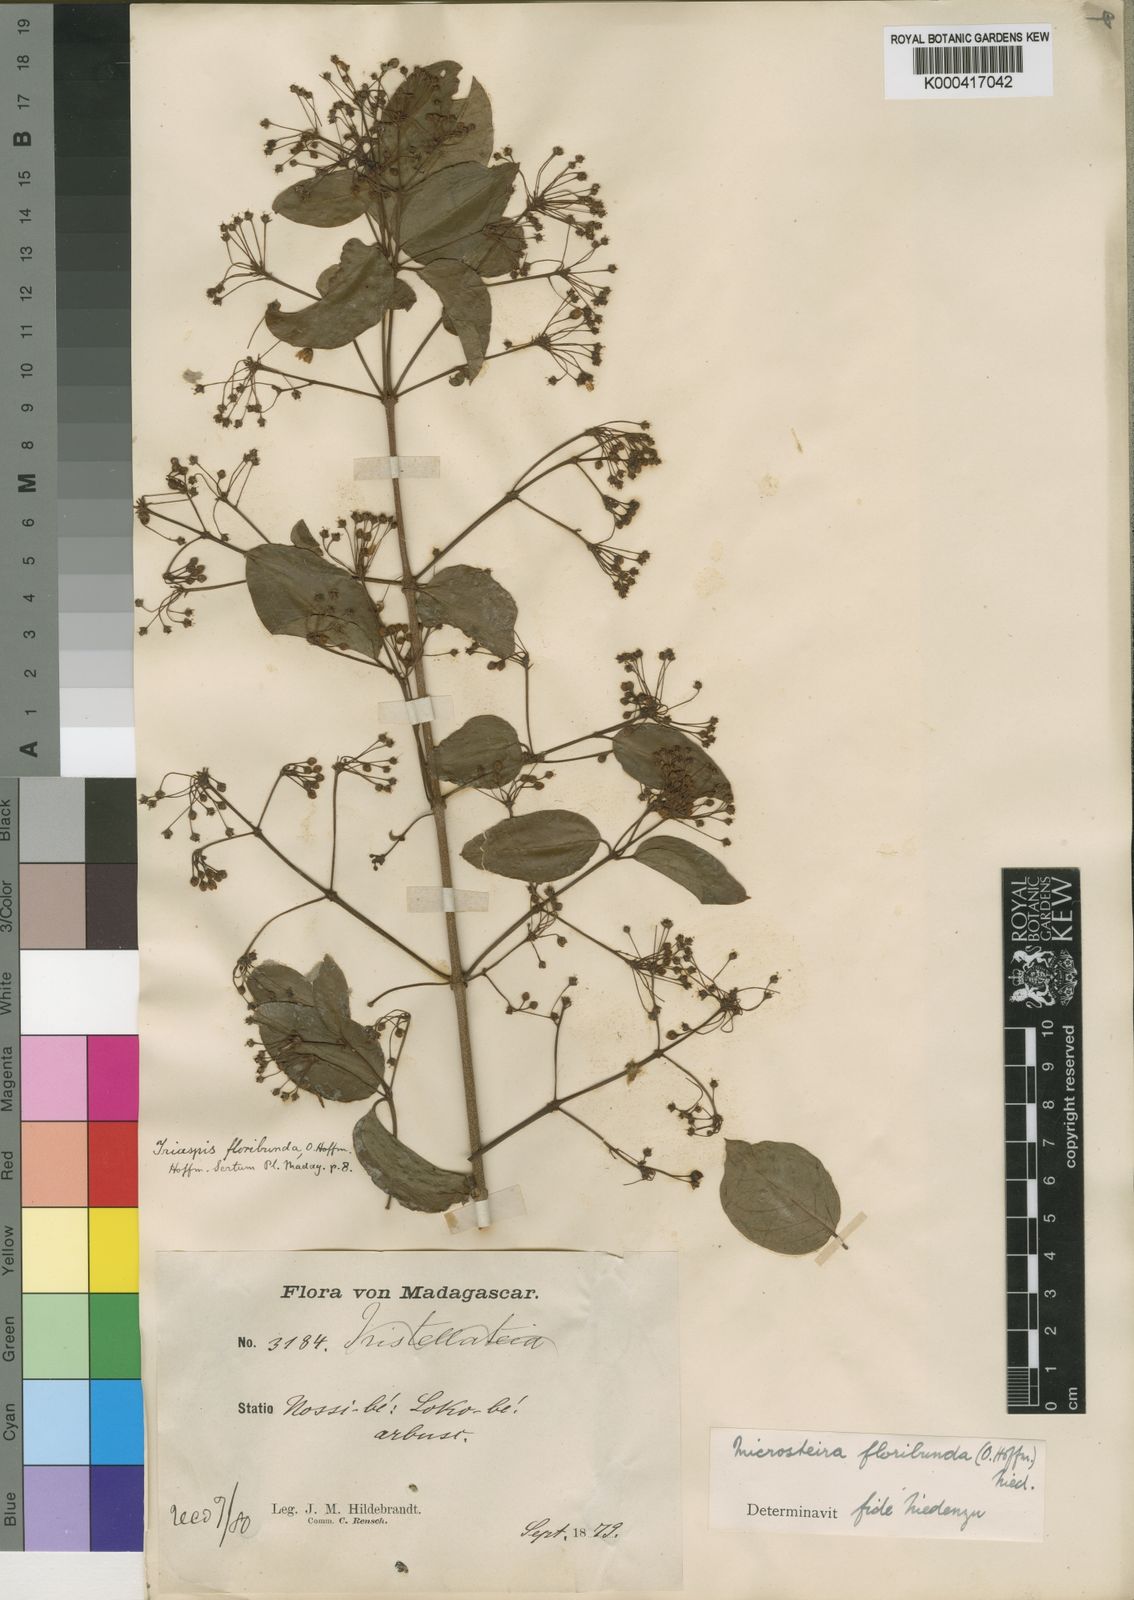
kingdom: Plantae
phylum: Tracheophyta
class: Magnoliopsida
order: Malpighiales
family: Malpighiaceae
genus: Microsteira
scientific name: Microsteira floribunda
